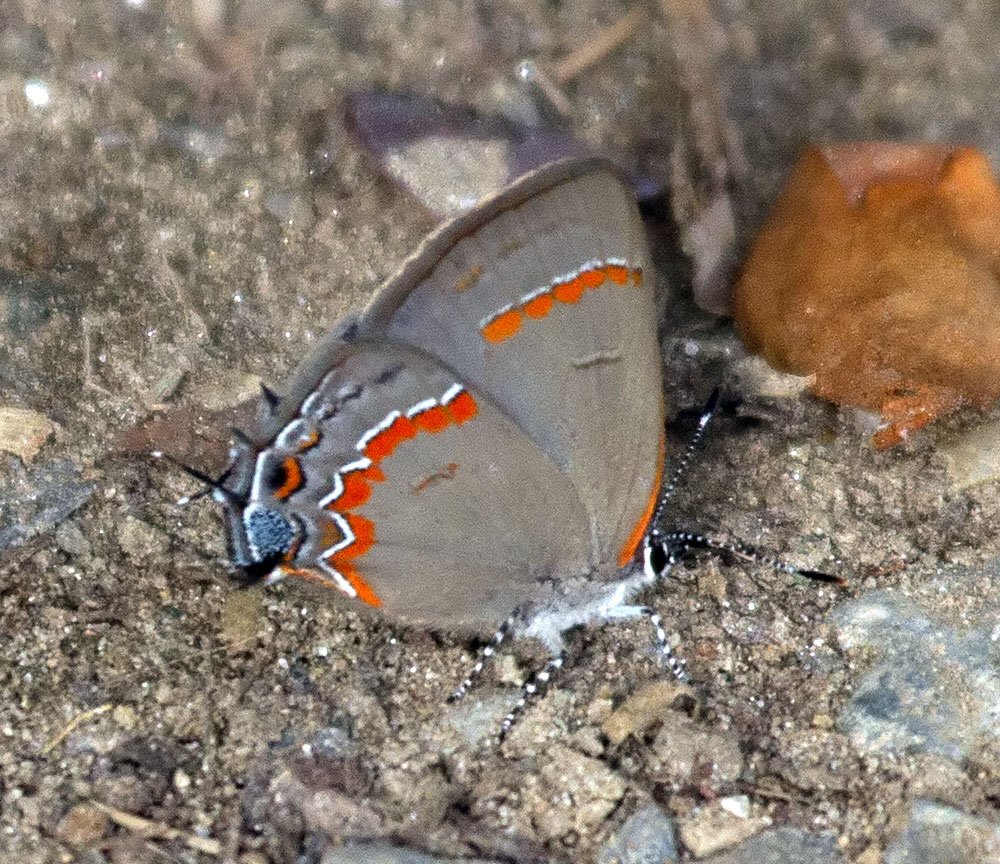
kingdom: Animalia
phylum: Arthropoda
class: Insecta
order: Lepidoptera
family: Lycaenidae
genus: Calycopis
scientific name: Calycopis cecrops
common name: Red-banded Hairstreak
